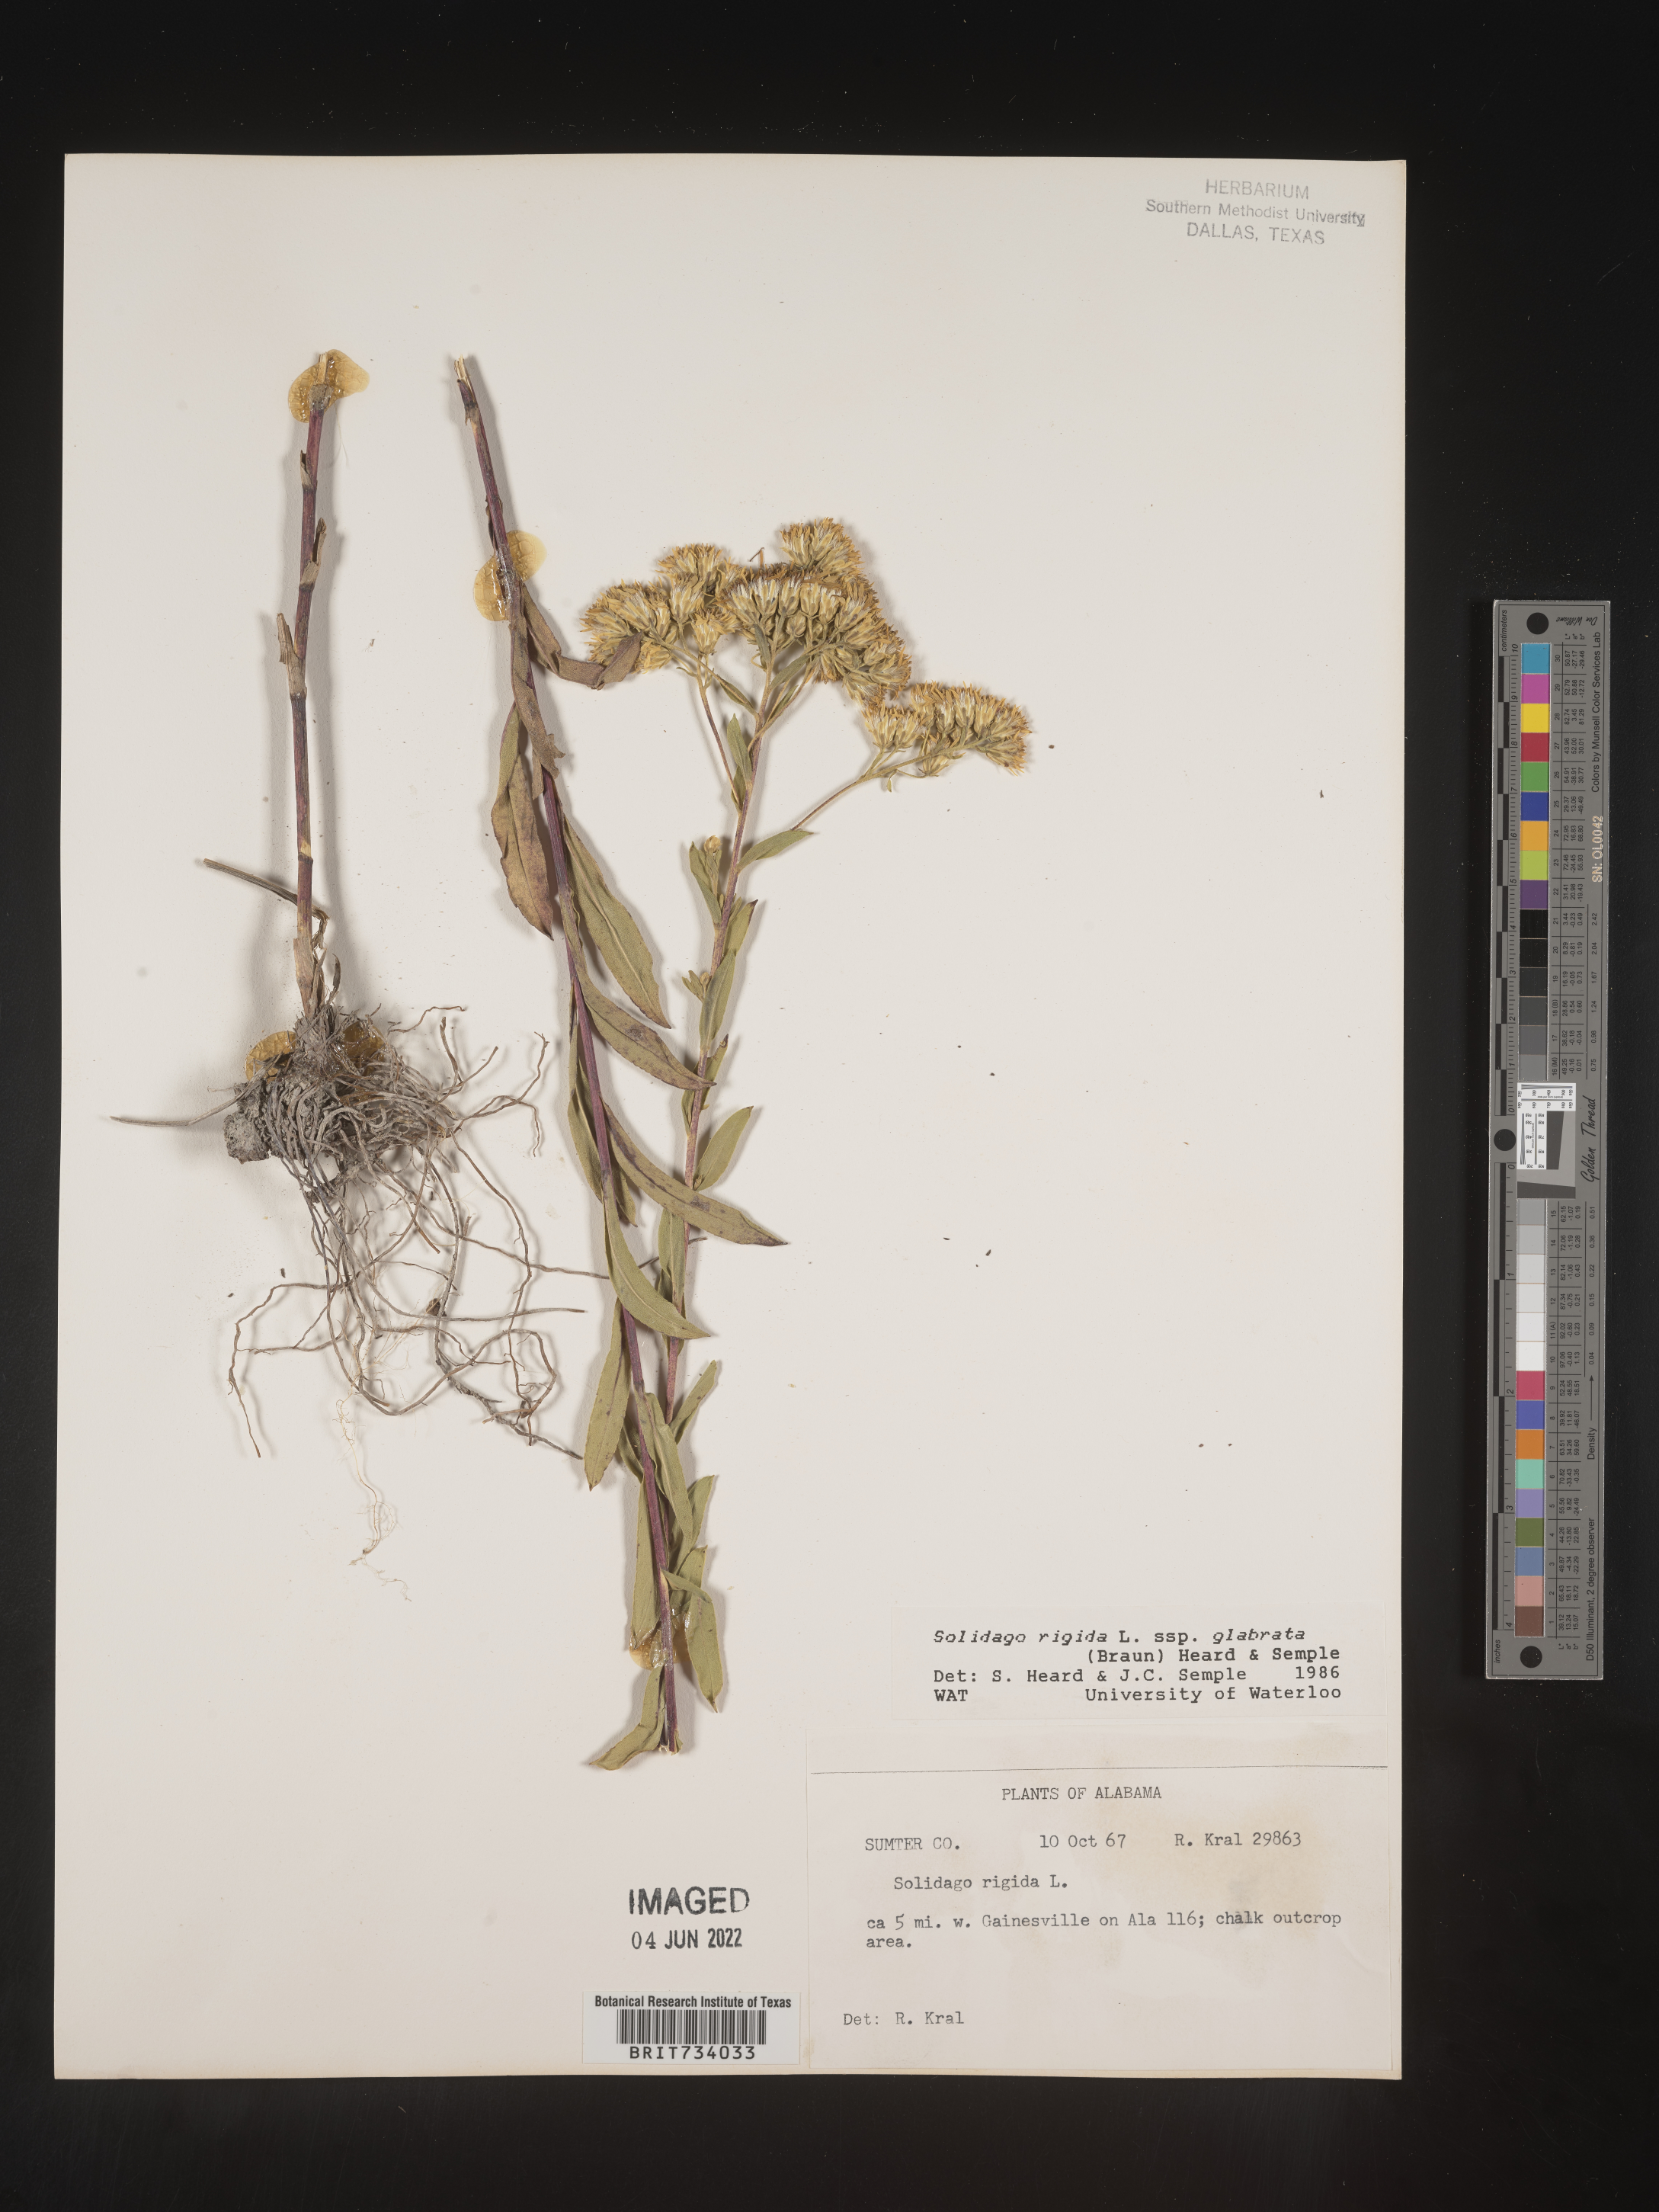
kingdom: Plantae
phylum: Tracheophyta
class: Magnoliopsida
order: Asterales
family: Asteraceae
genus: Solidago
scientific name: Solidago rigida
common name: Rigid goldenrod
